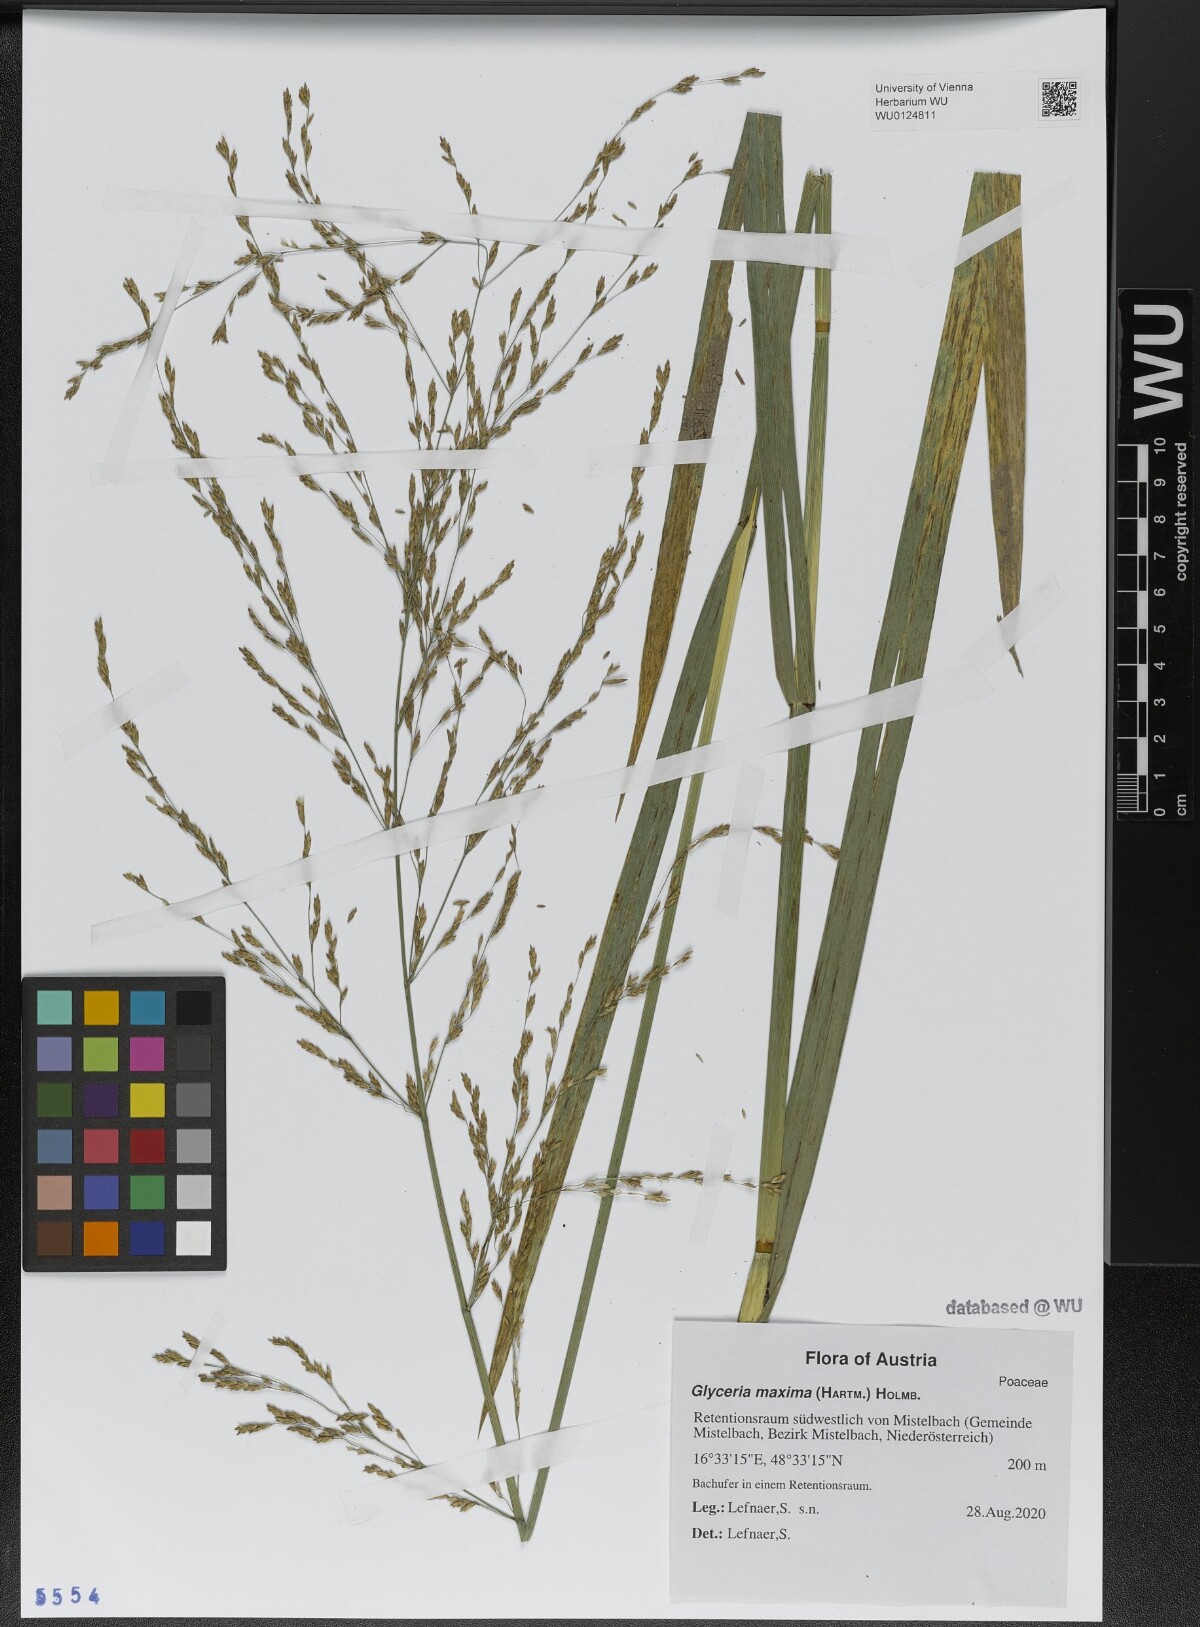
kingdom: Plantae
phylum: Tracheophyta
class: Liliopsida
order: Poales
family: Poaceae
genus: Glyceria
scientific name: Glyceria maxima
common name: Reed mannagrass
